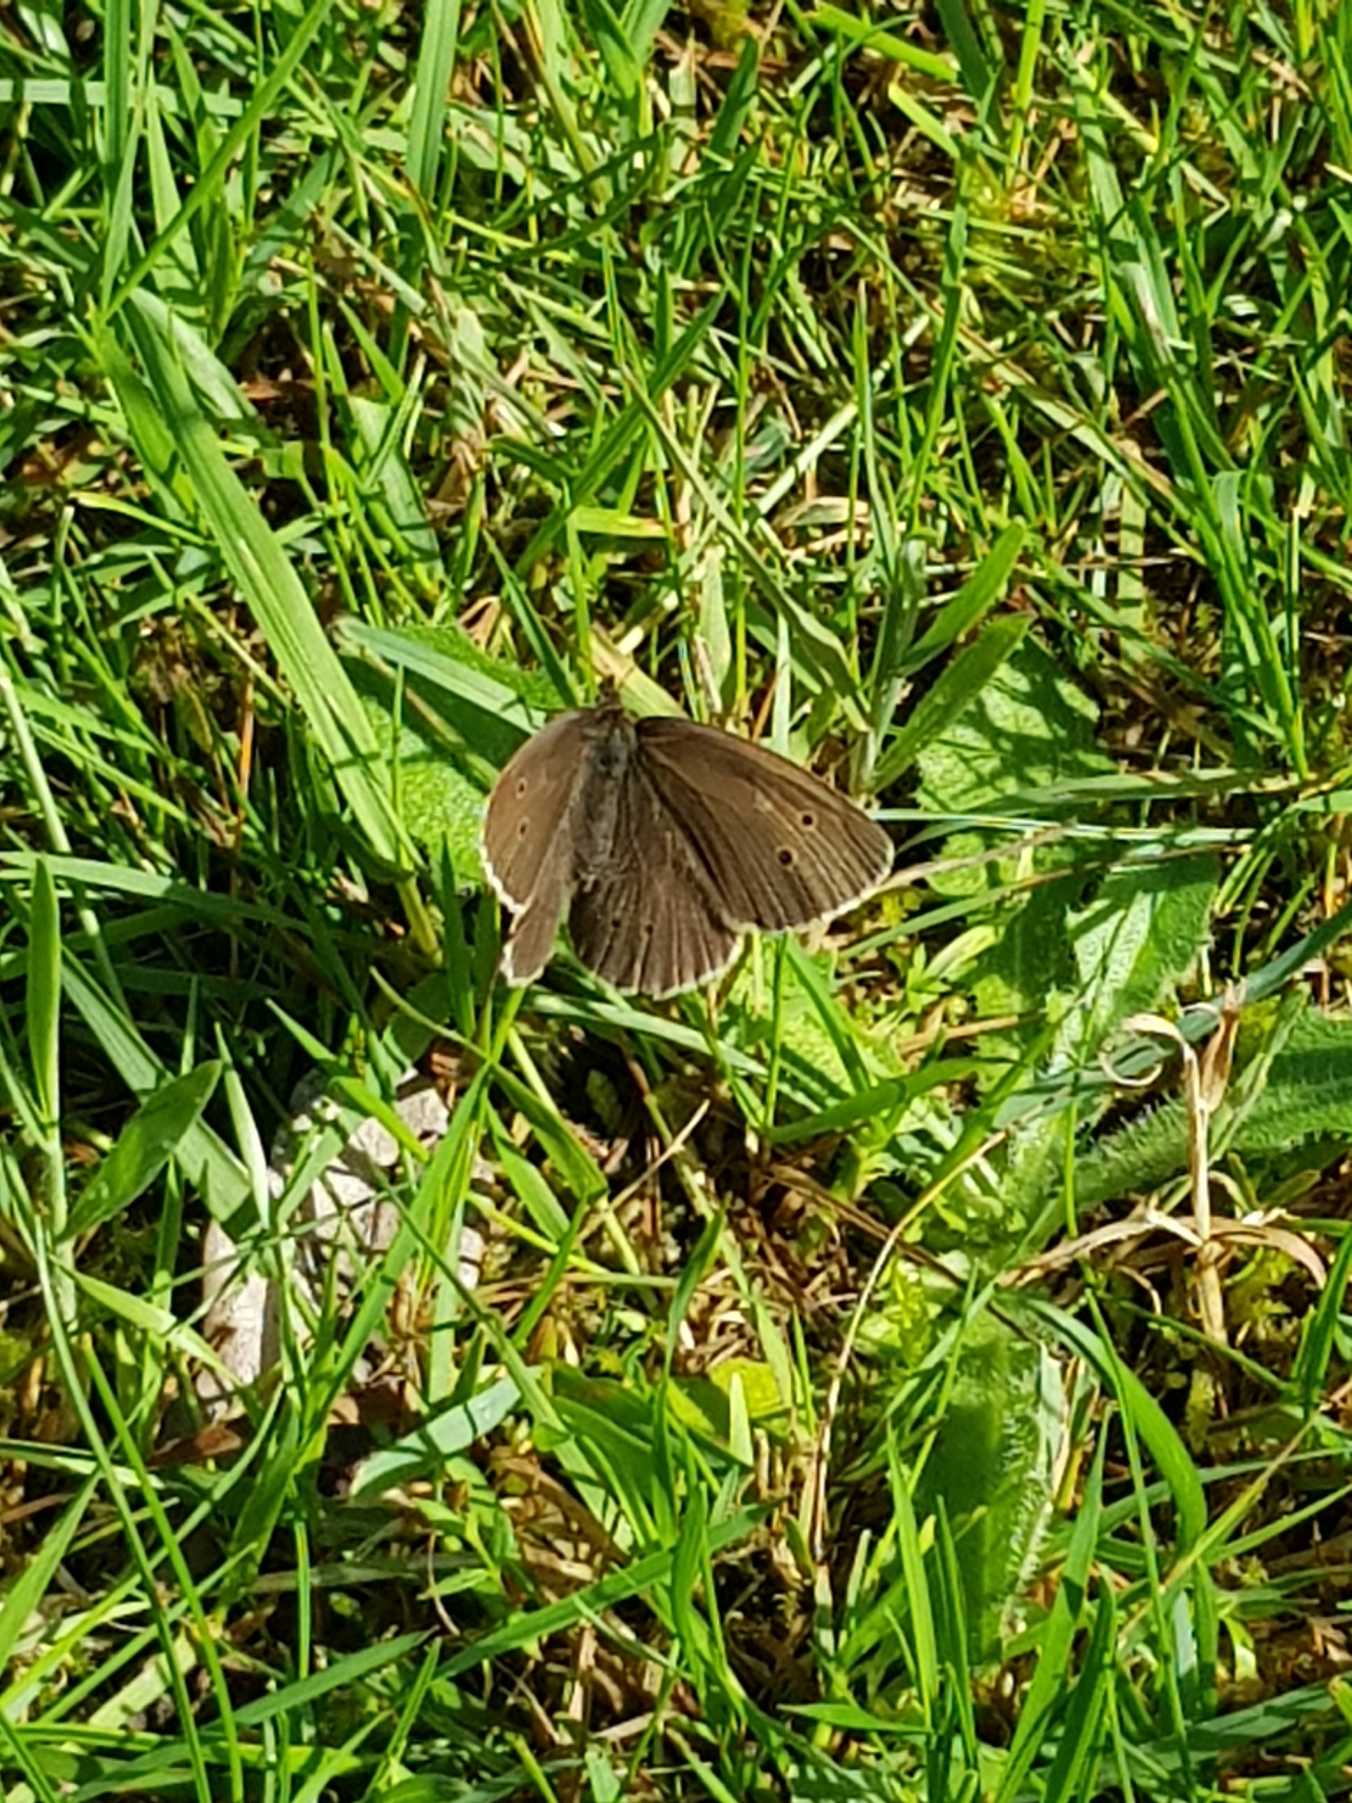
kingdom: Animalia
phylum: Arthropoda
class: Insecta
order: Lepidoptera
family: Nymphalidae
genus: Aphantopus
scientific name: Aphantopus hyperantus
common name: Engrandøje
